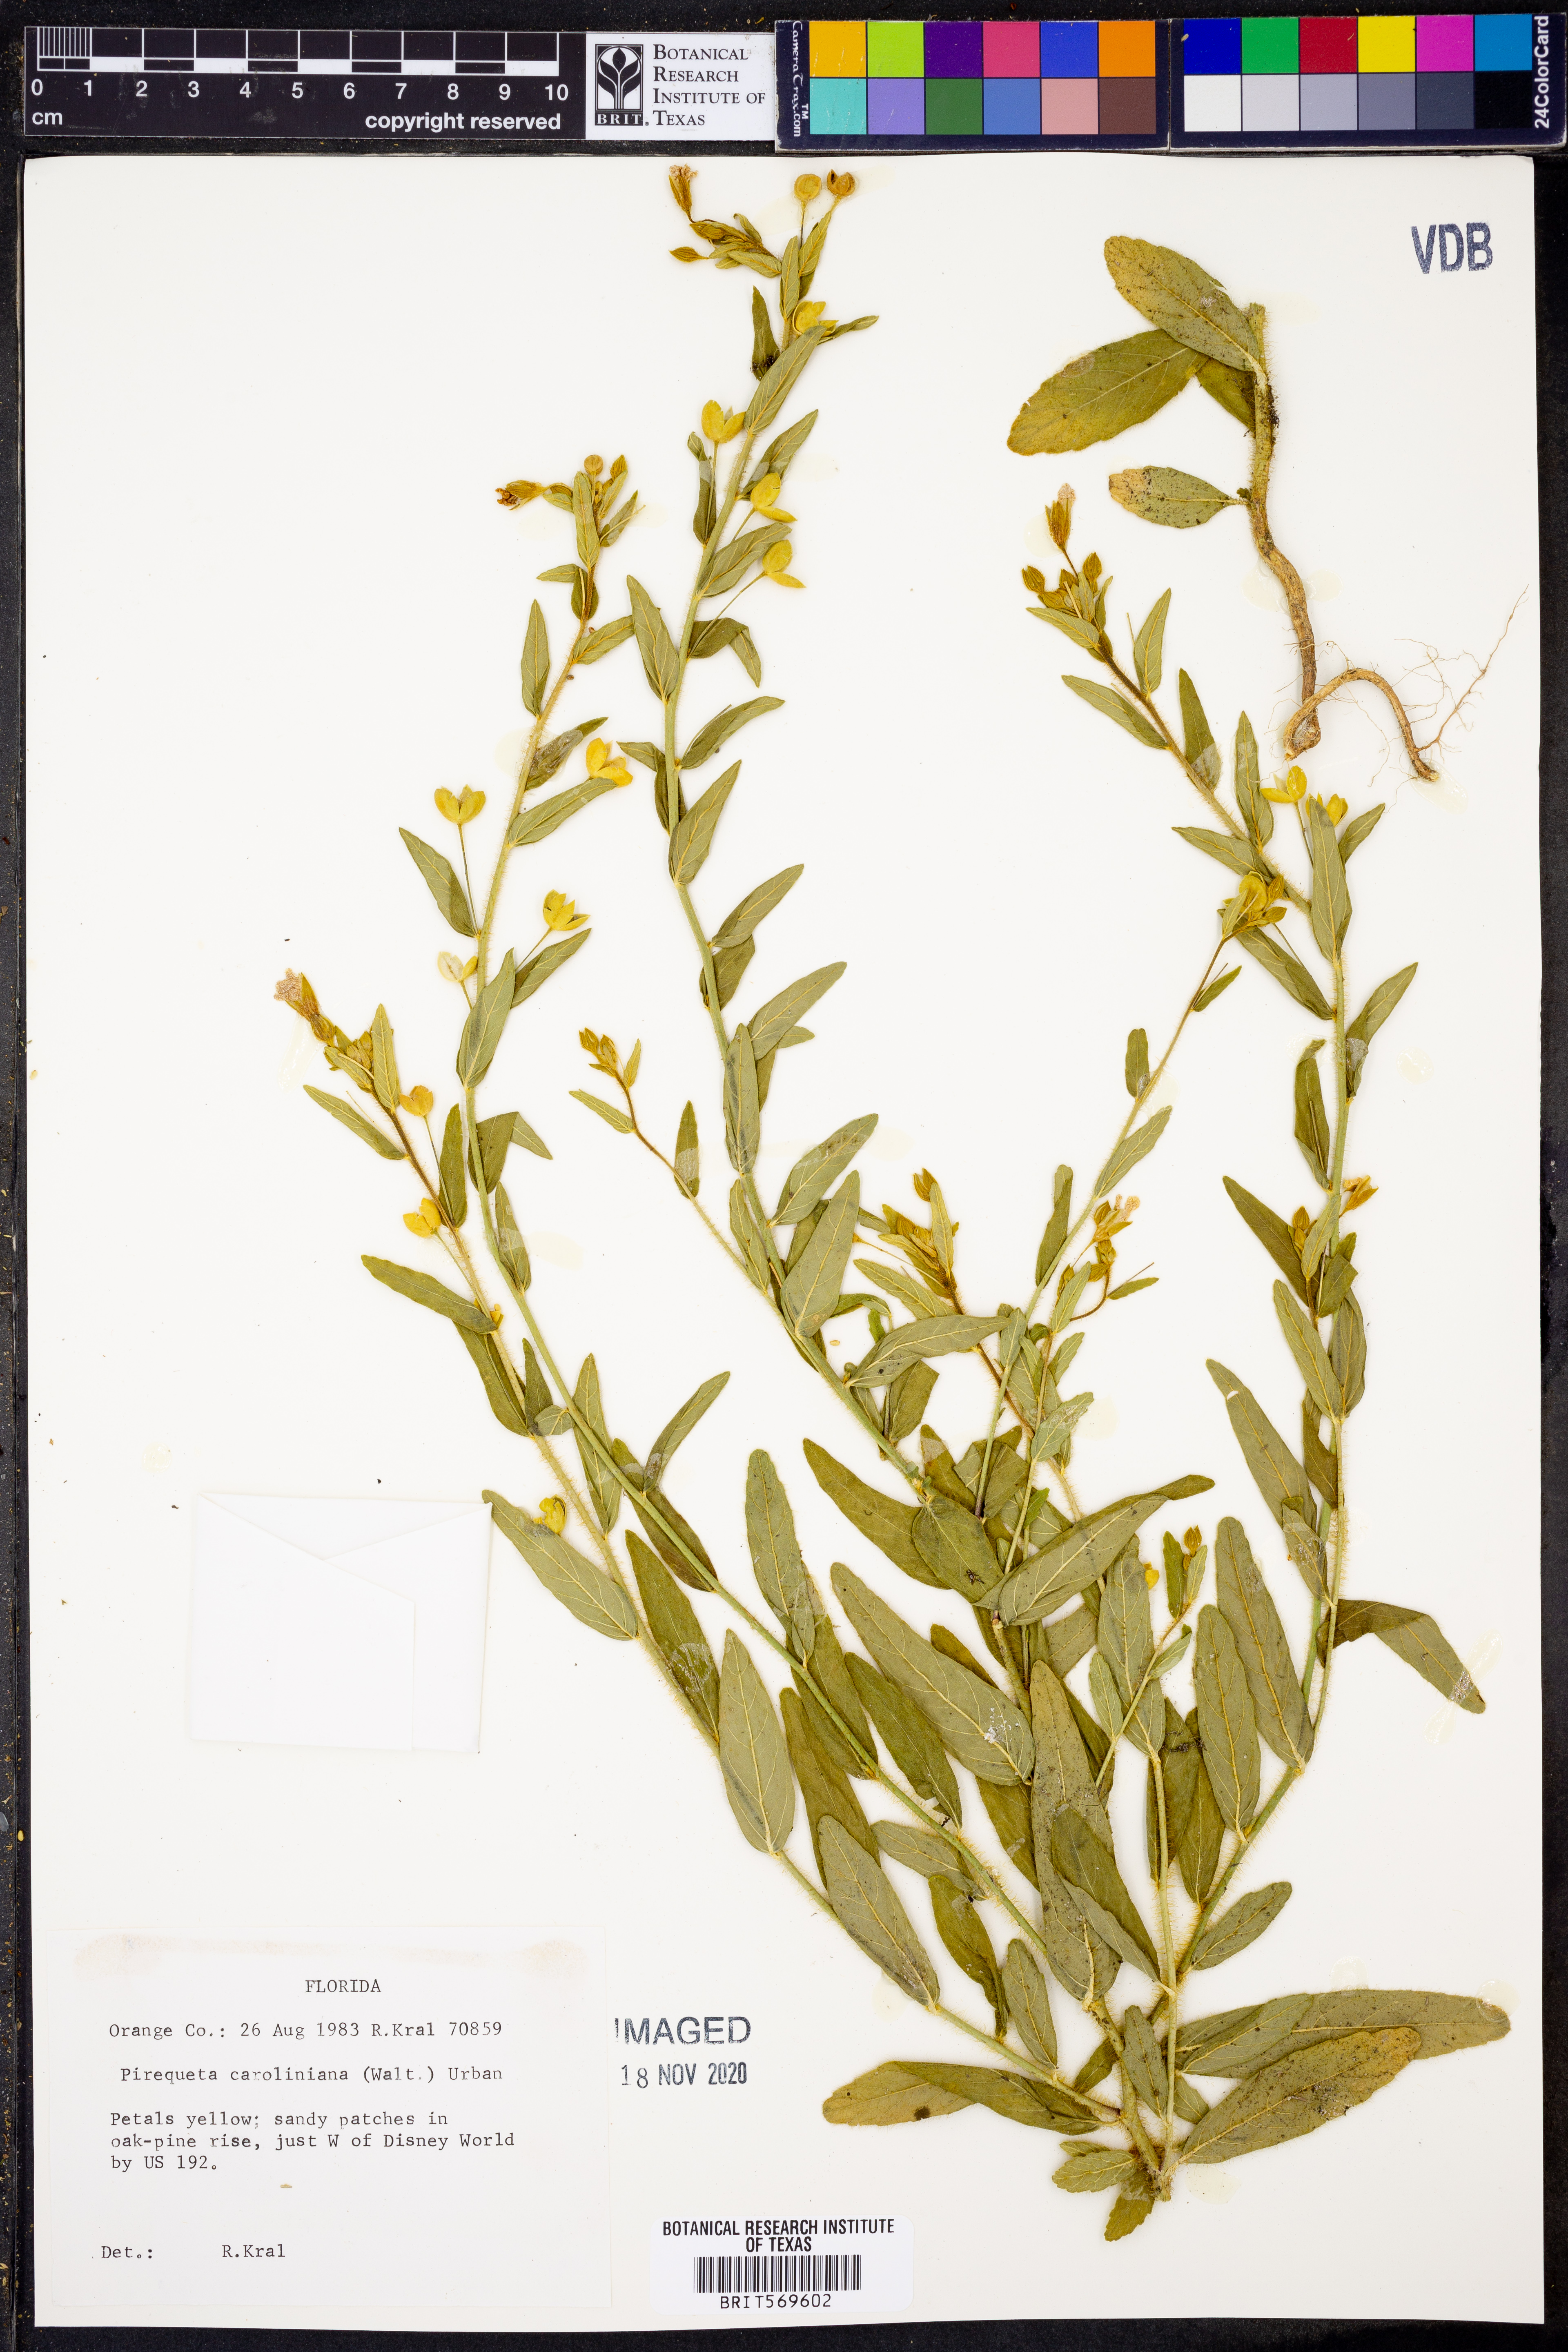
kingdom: Plantae
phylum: Tracheophyta
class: Magnoliopsida
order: Malpighiales
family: Turneraceae
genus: Piriqueta
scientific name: Piriqueta cistoides
